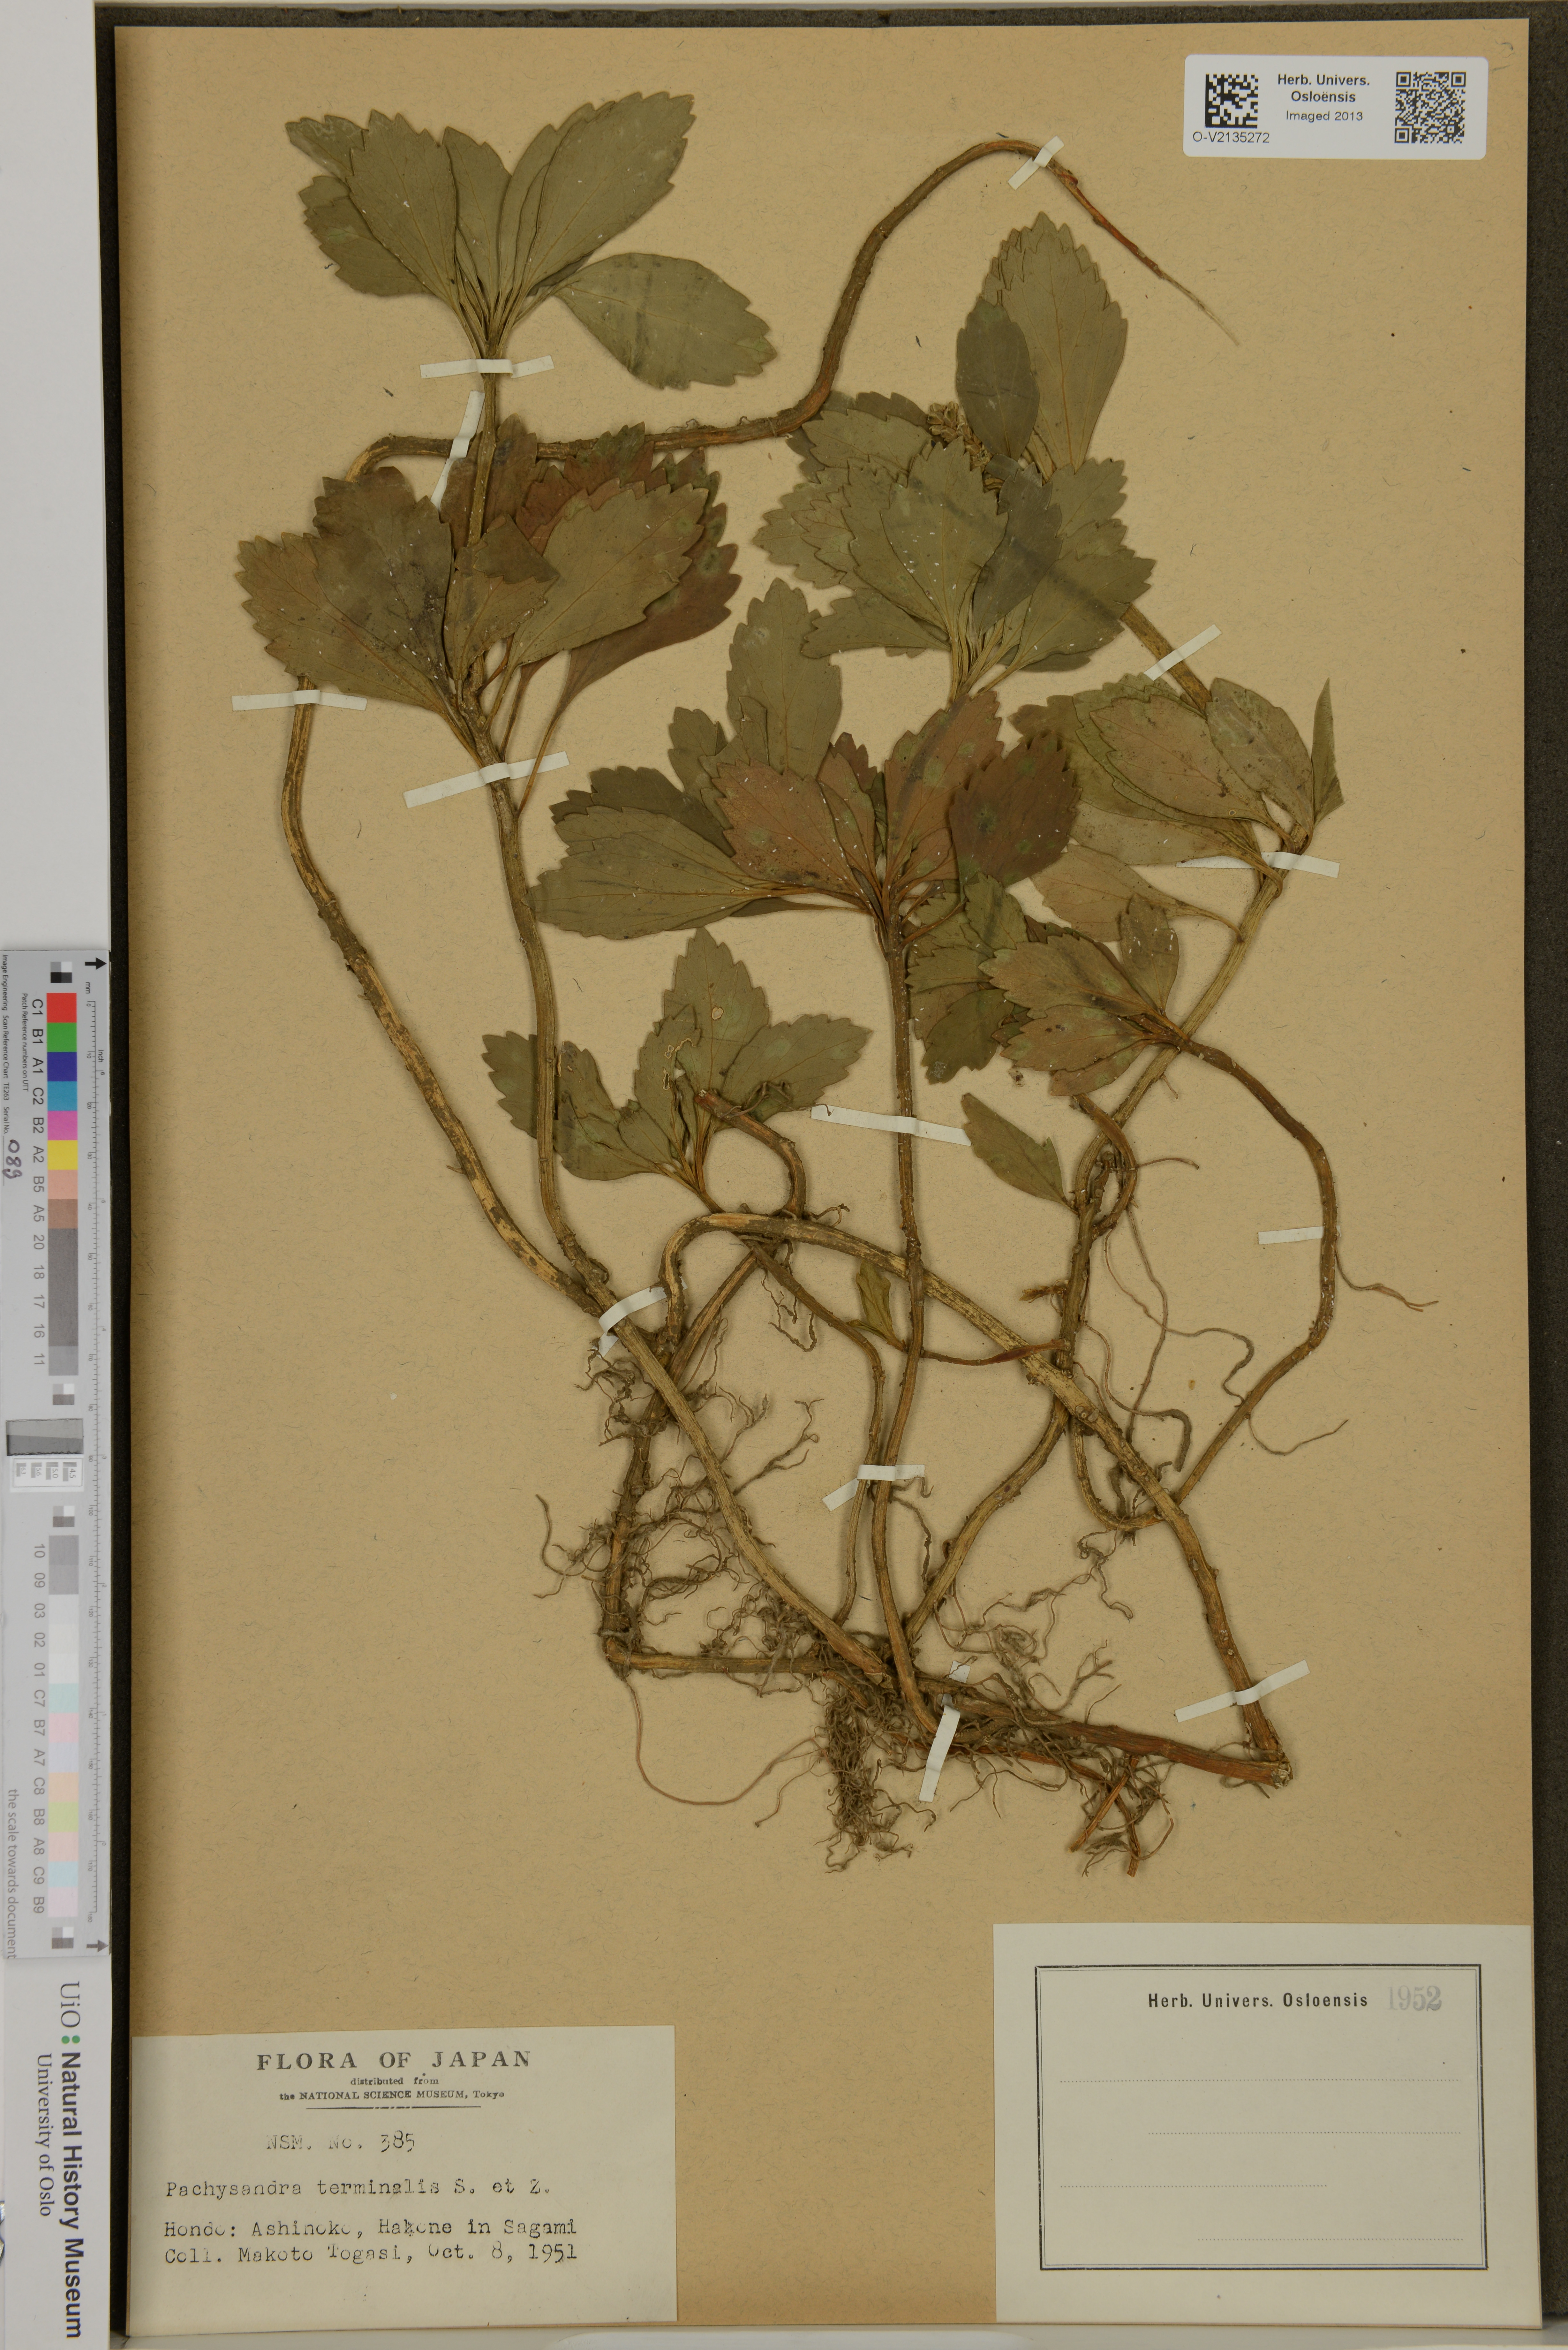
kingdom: Plantae
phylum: Tracheophyta
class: Magnoliopsida
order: Buxales
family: Buxaceae
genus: Pachysandra
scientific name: Pachysandra terminalis
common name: Japanese pachysandra
